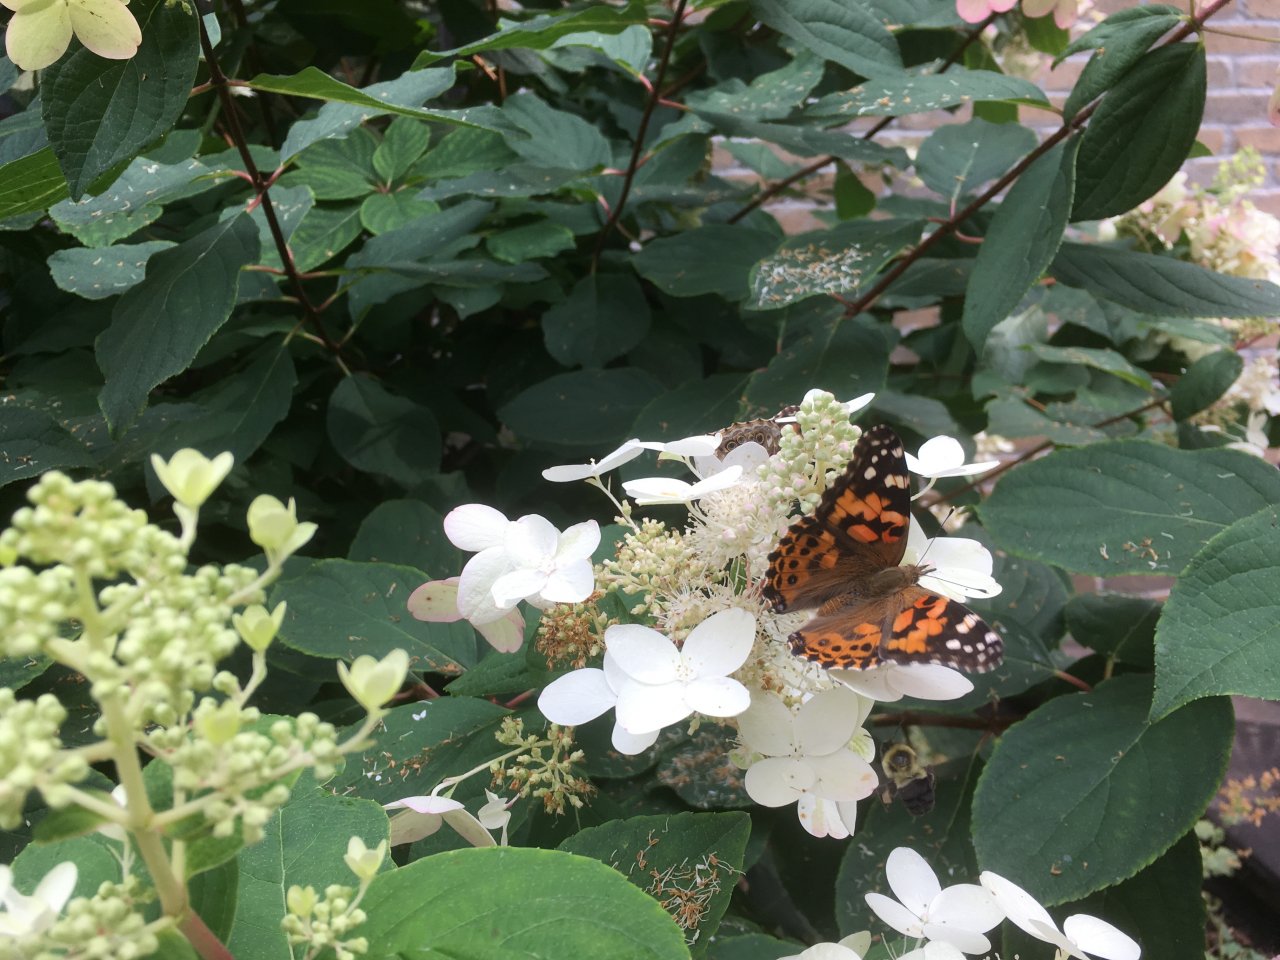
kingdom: Animalia
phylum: Arthropoda
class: Insecta
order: Lepidoptera
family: Nymphalidae
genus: Vanessa
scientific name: Vanessa cardui
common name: Painted Lady
